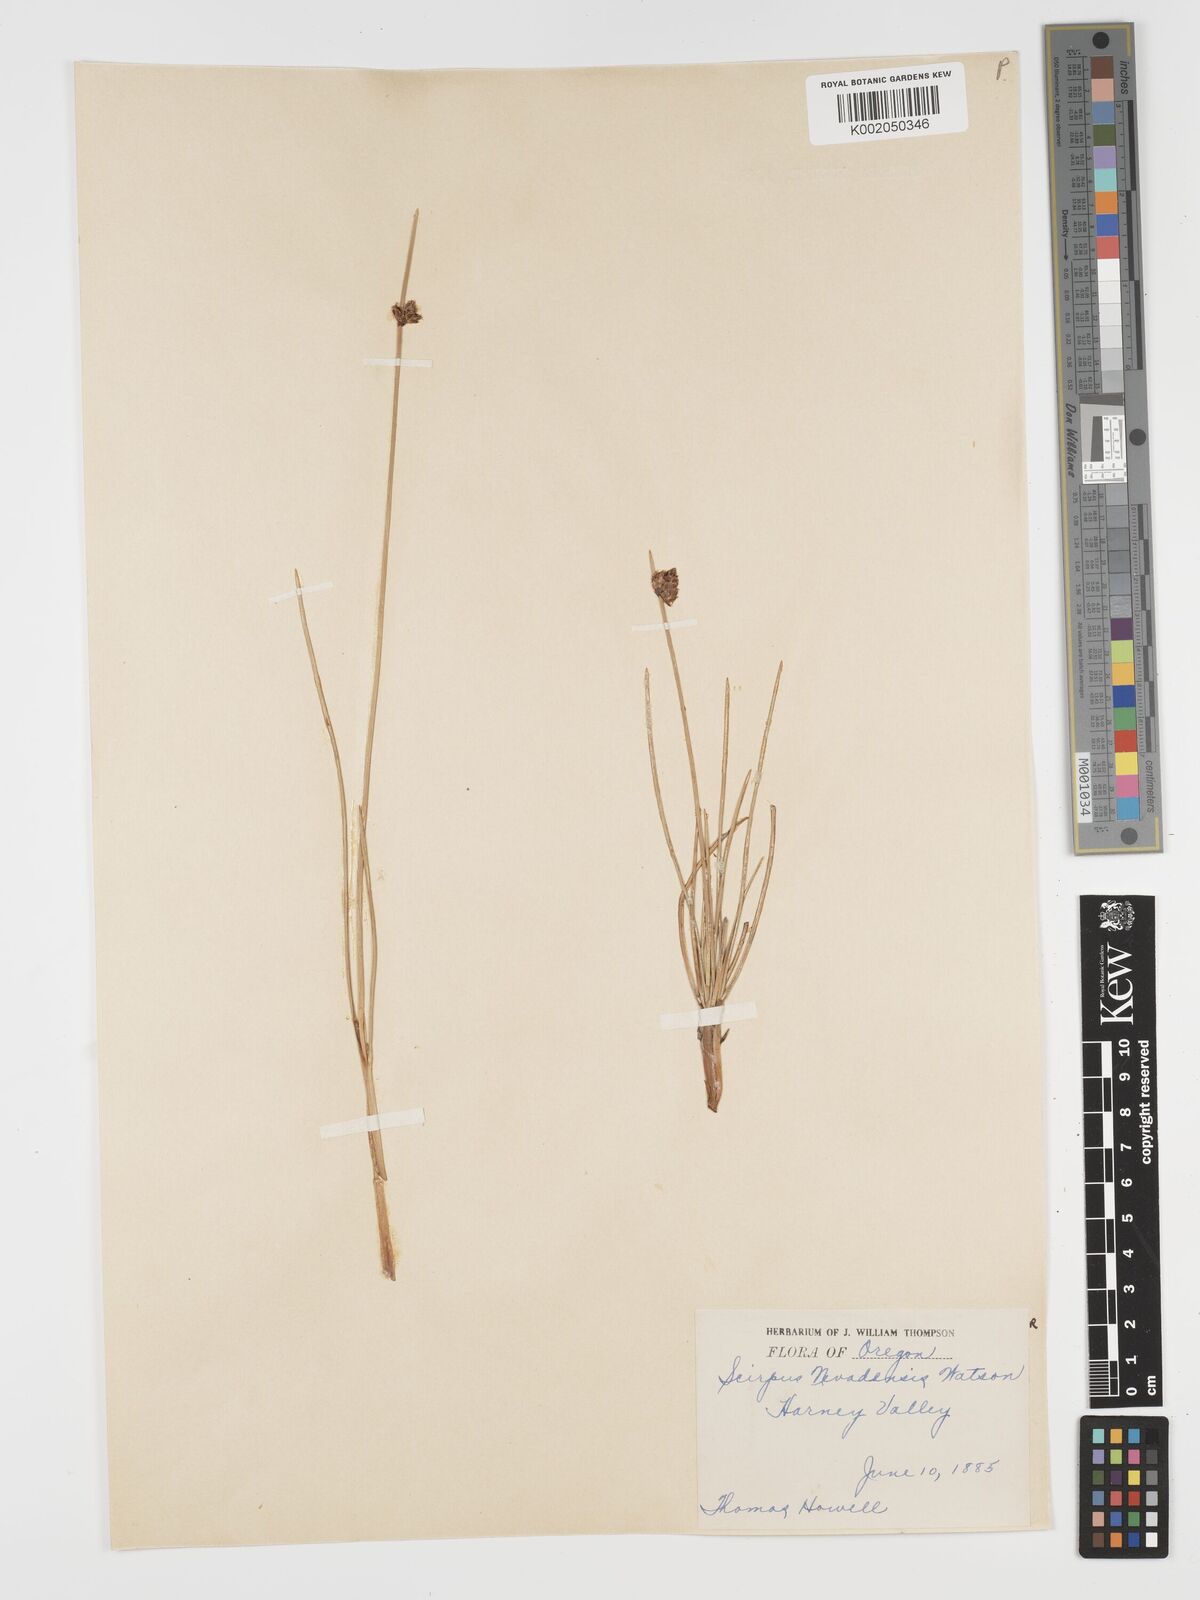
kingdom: Plantae
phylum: Tracheophyta
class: Liliopsida
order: Poales
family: Cyperaceae
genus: Amphiscirpus
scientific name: Amphiscirpus nevadensis
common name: Nevada bulrush
